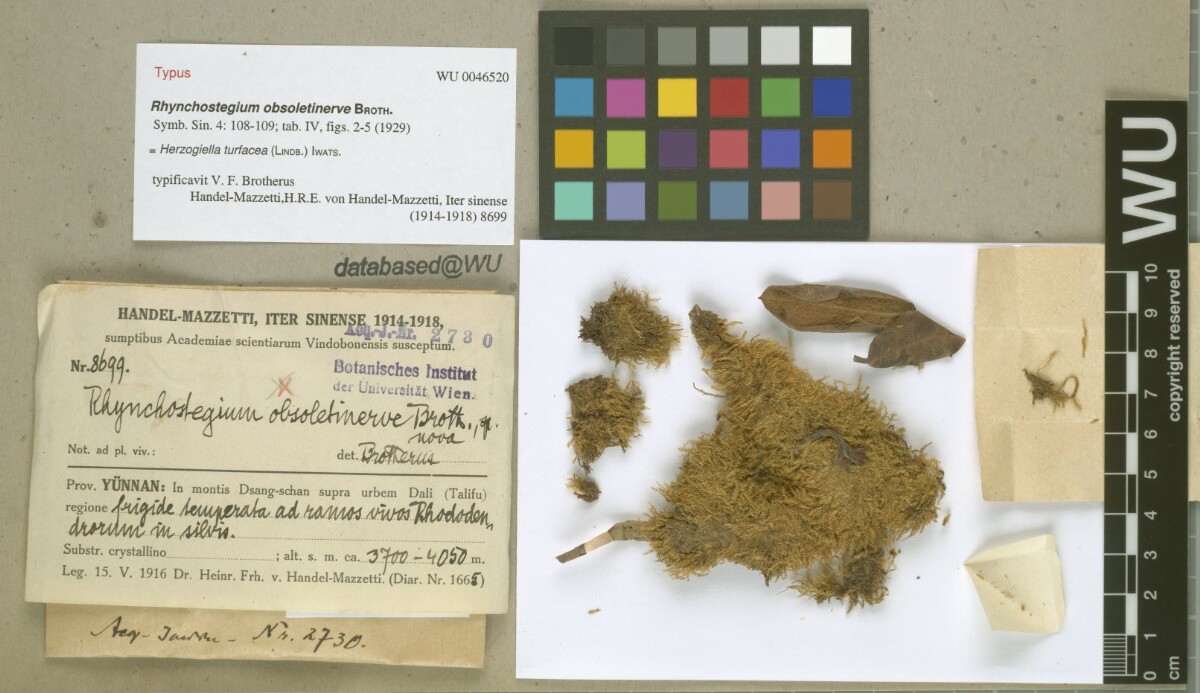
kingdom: Plantae
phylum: Bryophyta
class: Bryopsida
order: Hypnales
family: Plagiotheciaceae
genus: Herzogiella
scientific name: Herzogiella turfacea
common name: Flat stump moss
